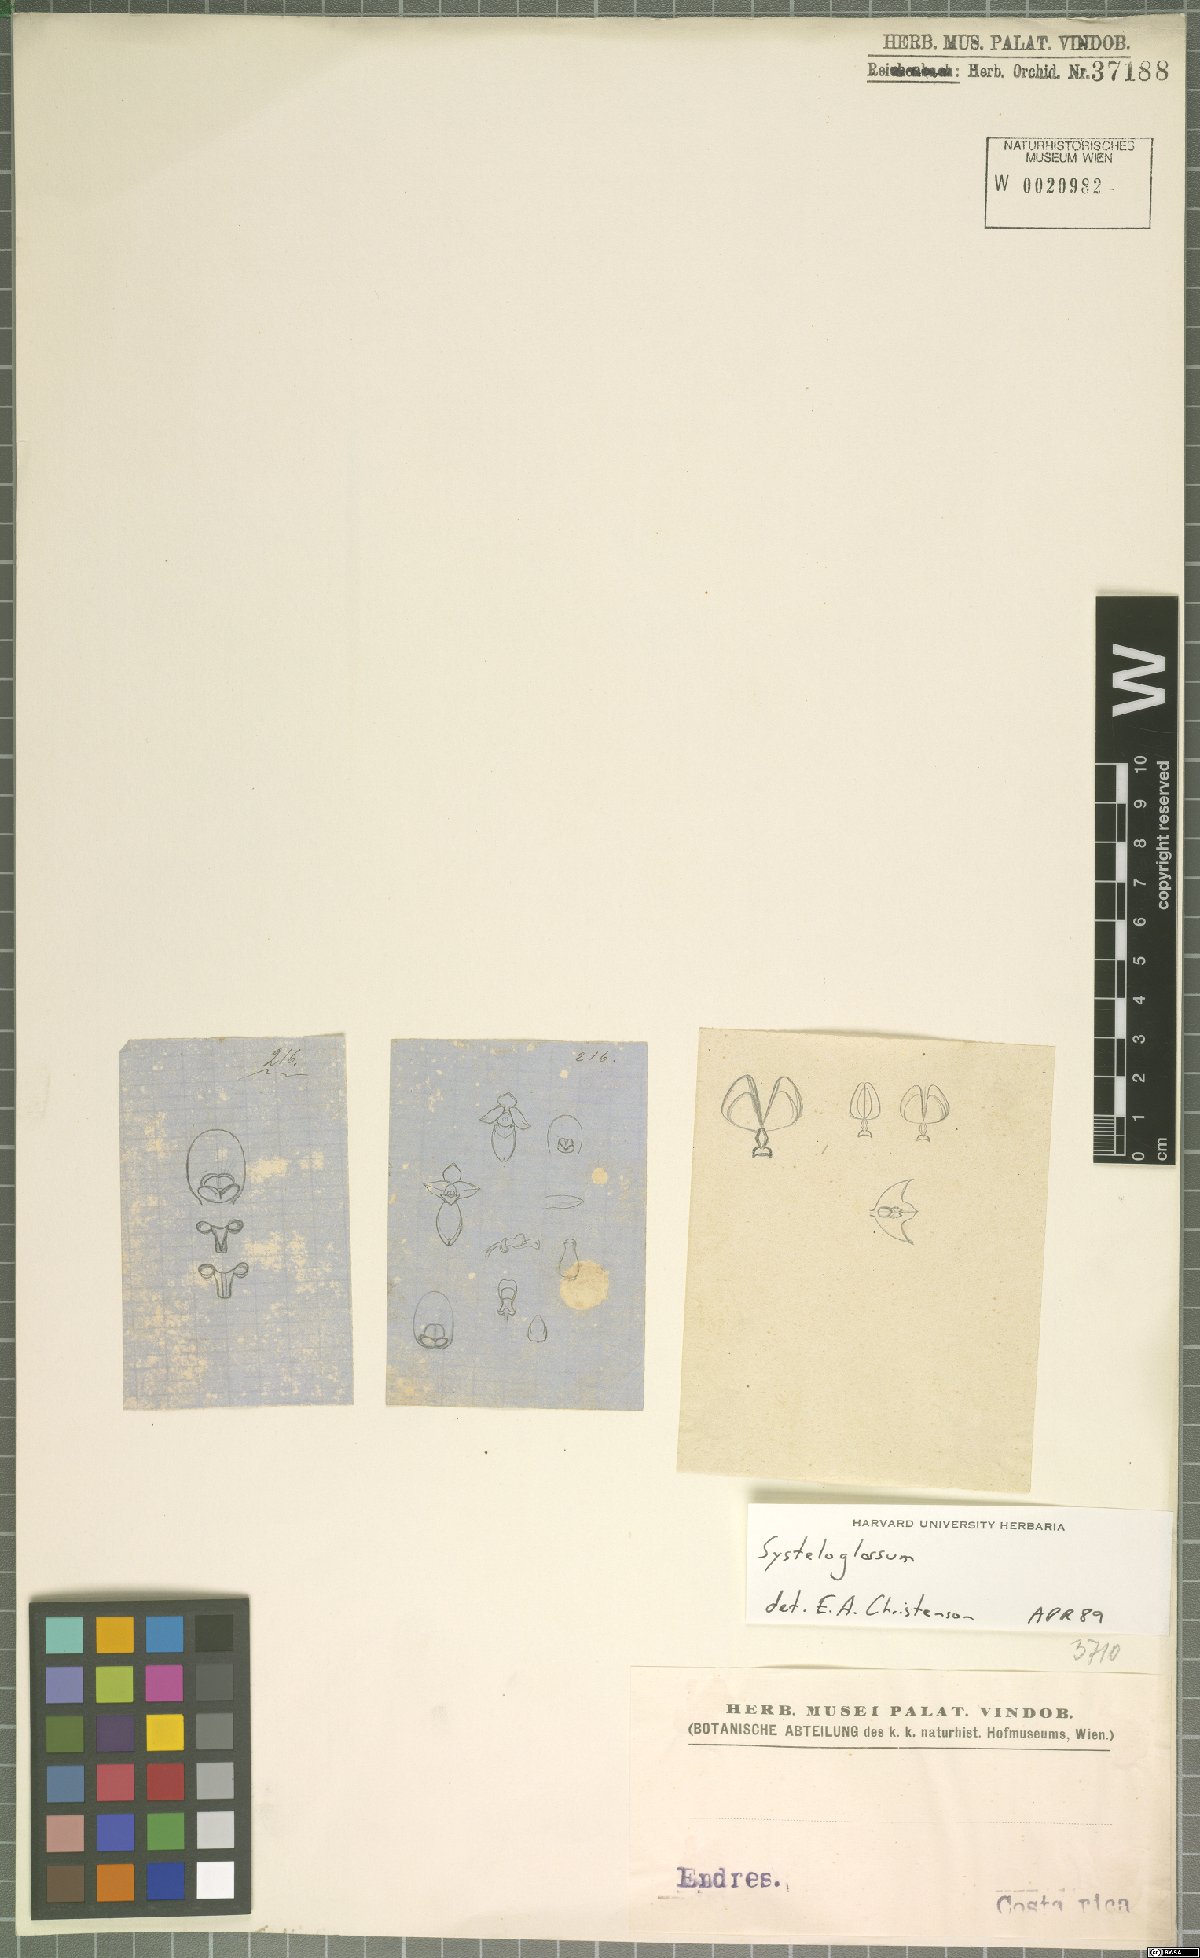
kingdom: Plantae
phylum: Tracheophyta
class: Liliopsida
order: Asparagales
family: Orchidaceae
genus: Systeloglossum
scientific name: Systeloglossum
